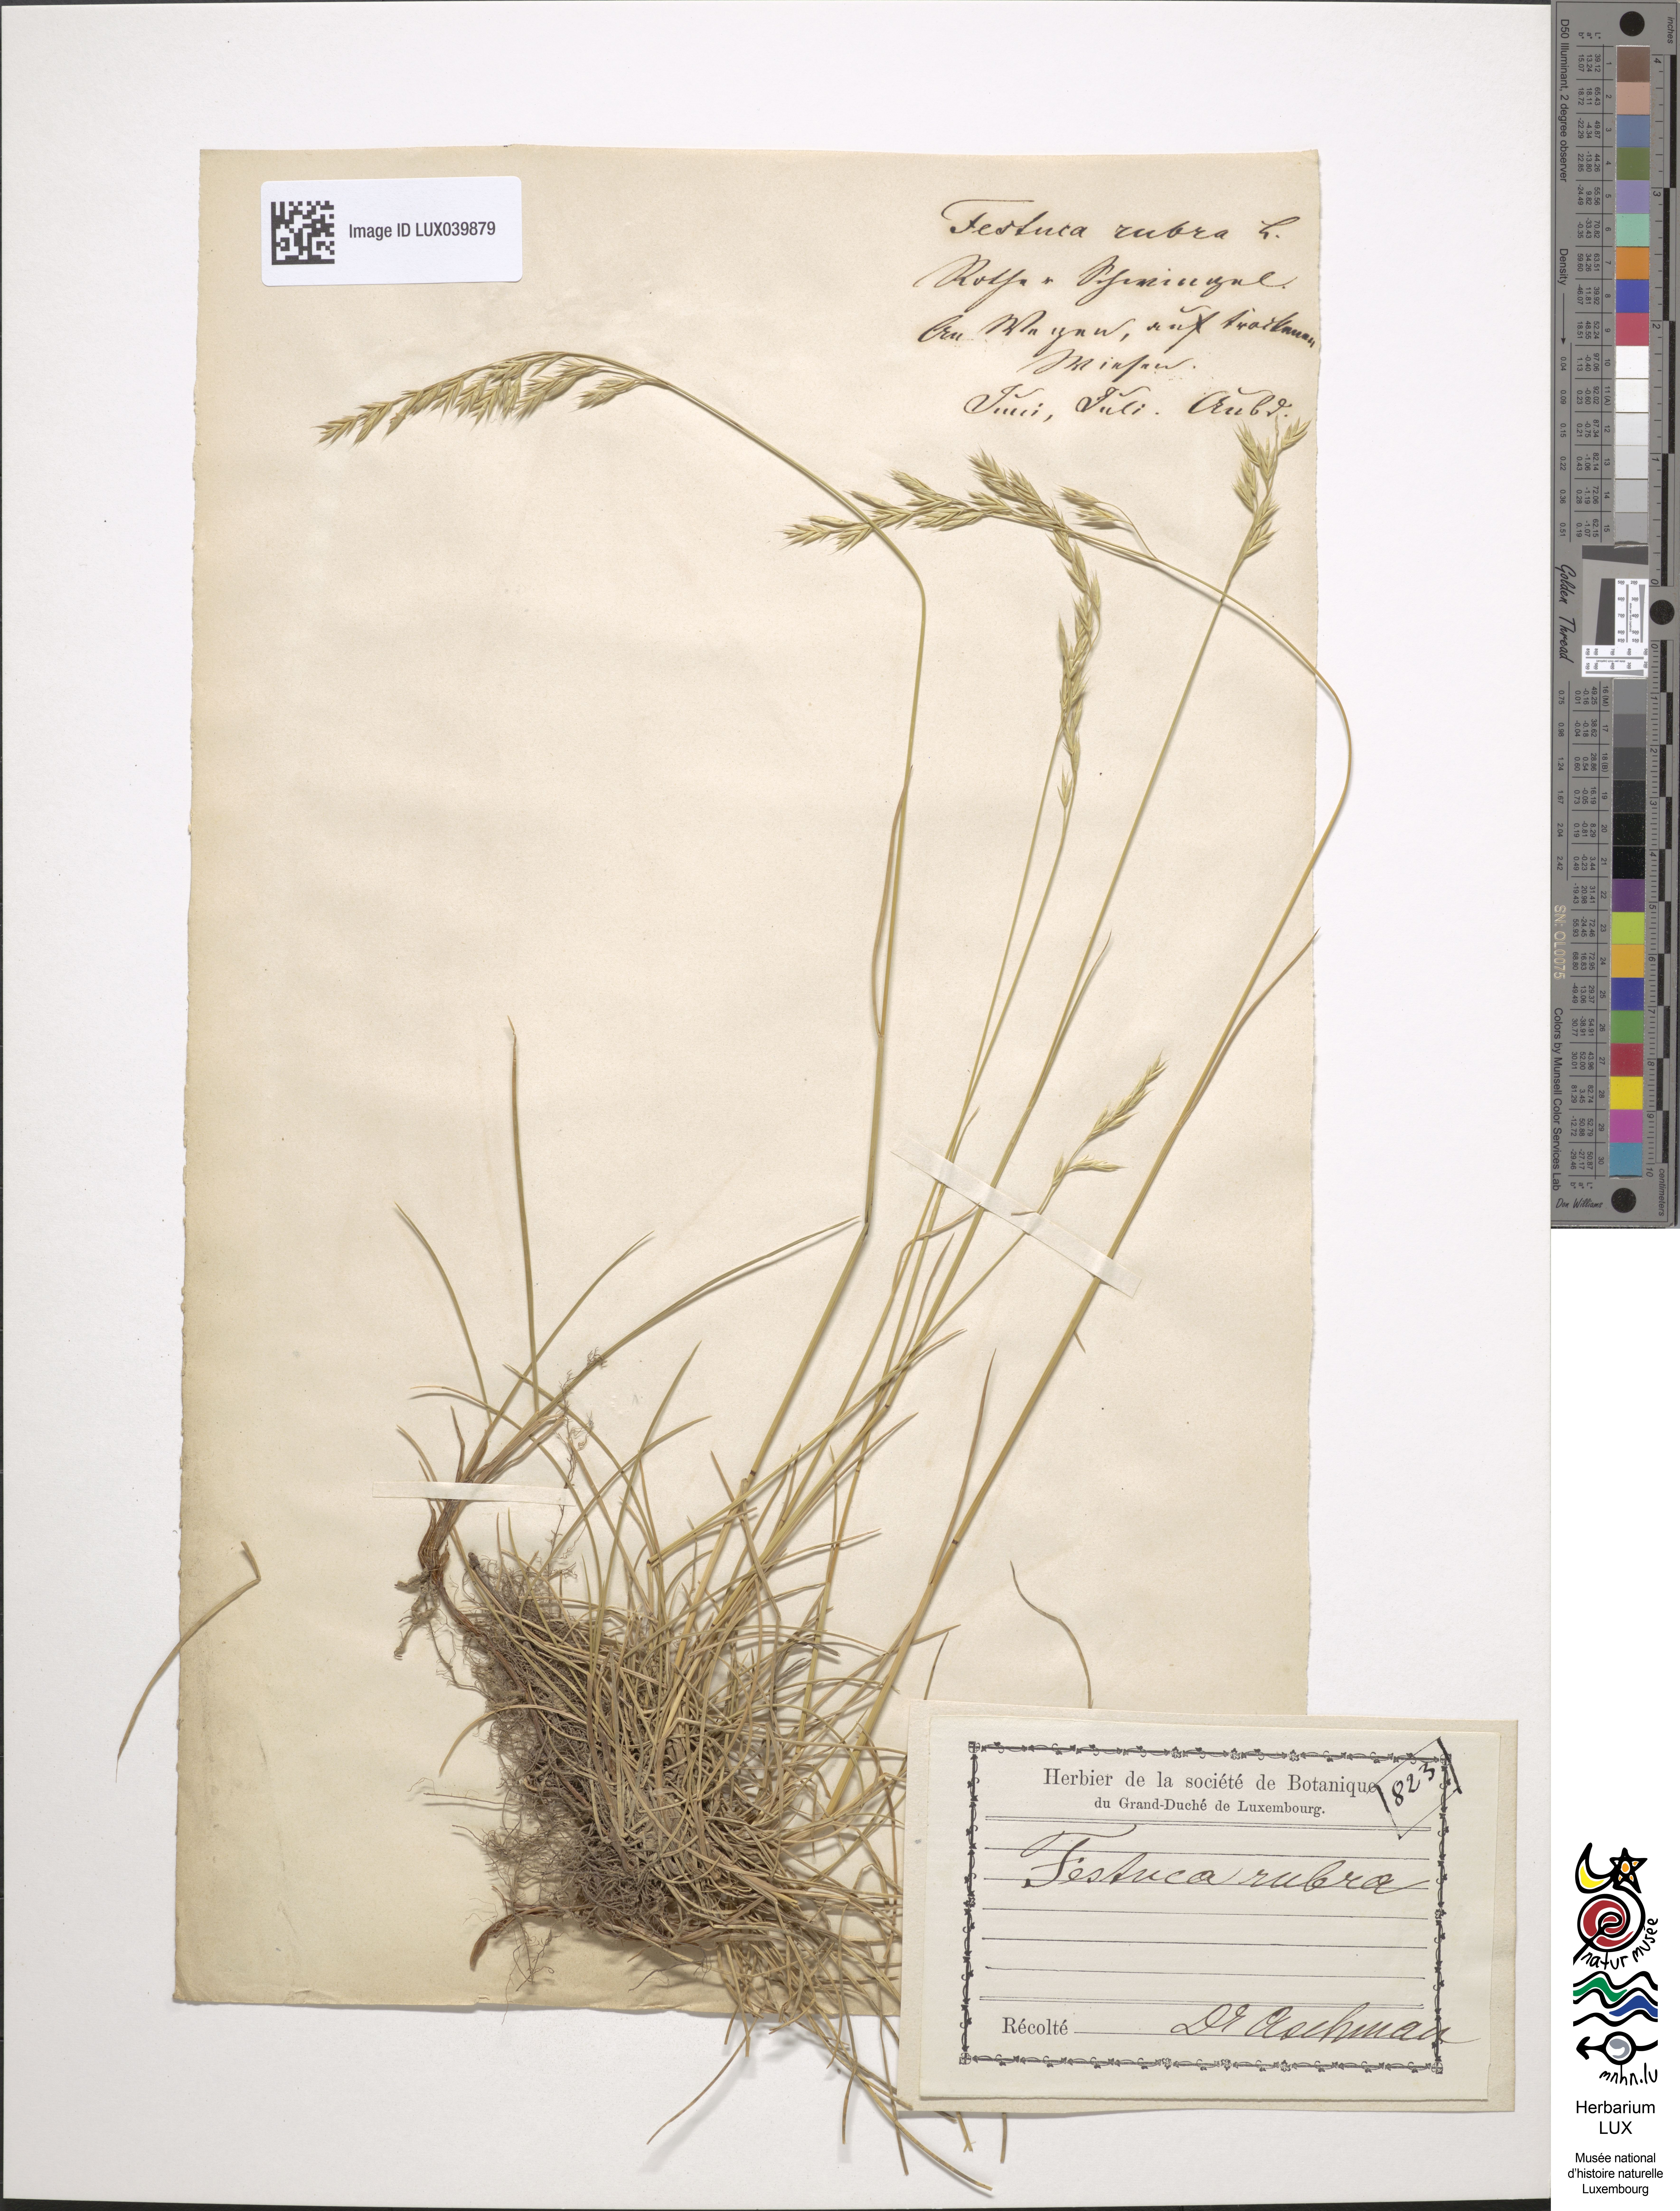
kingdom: Plantae
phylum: Tracheophyta
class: Liliopsida
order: Poales
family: Poaceae
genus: Festuca
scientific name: Festuca rubra
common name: Red fescue
